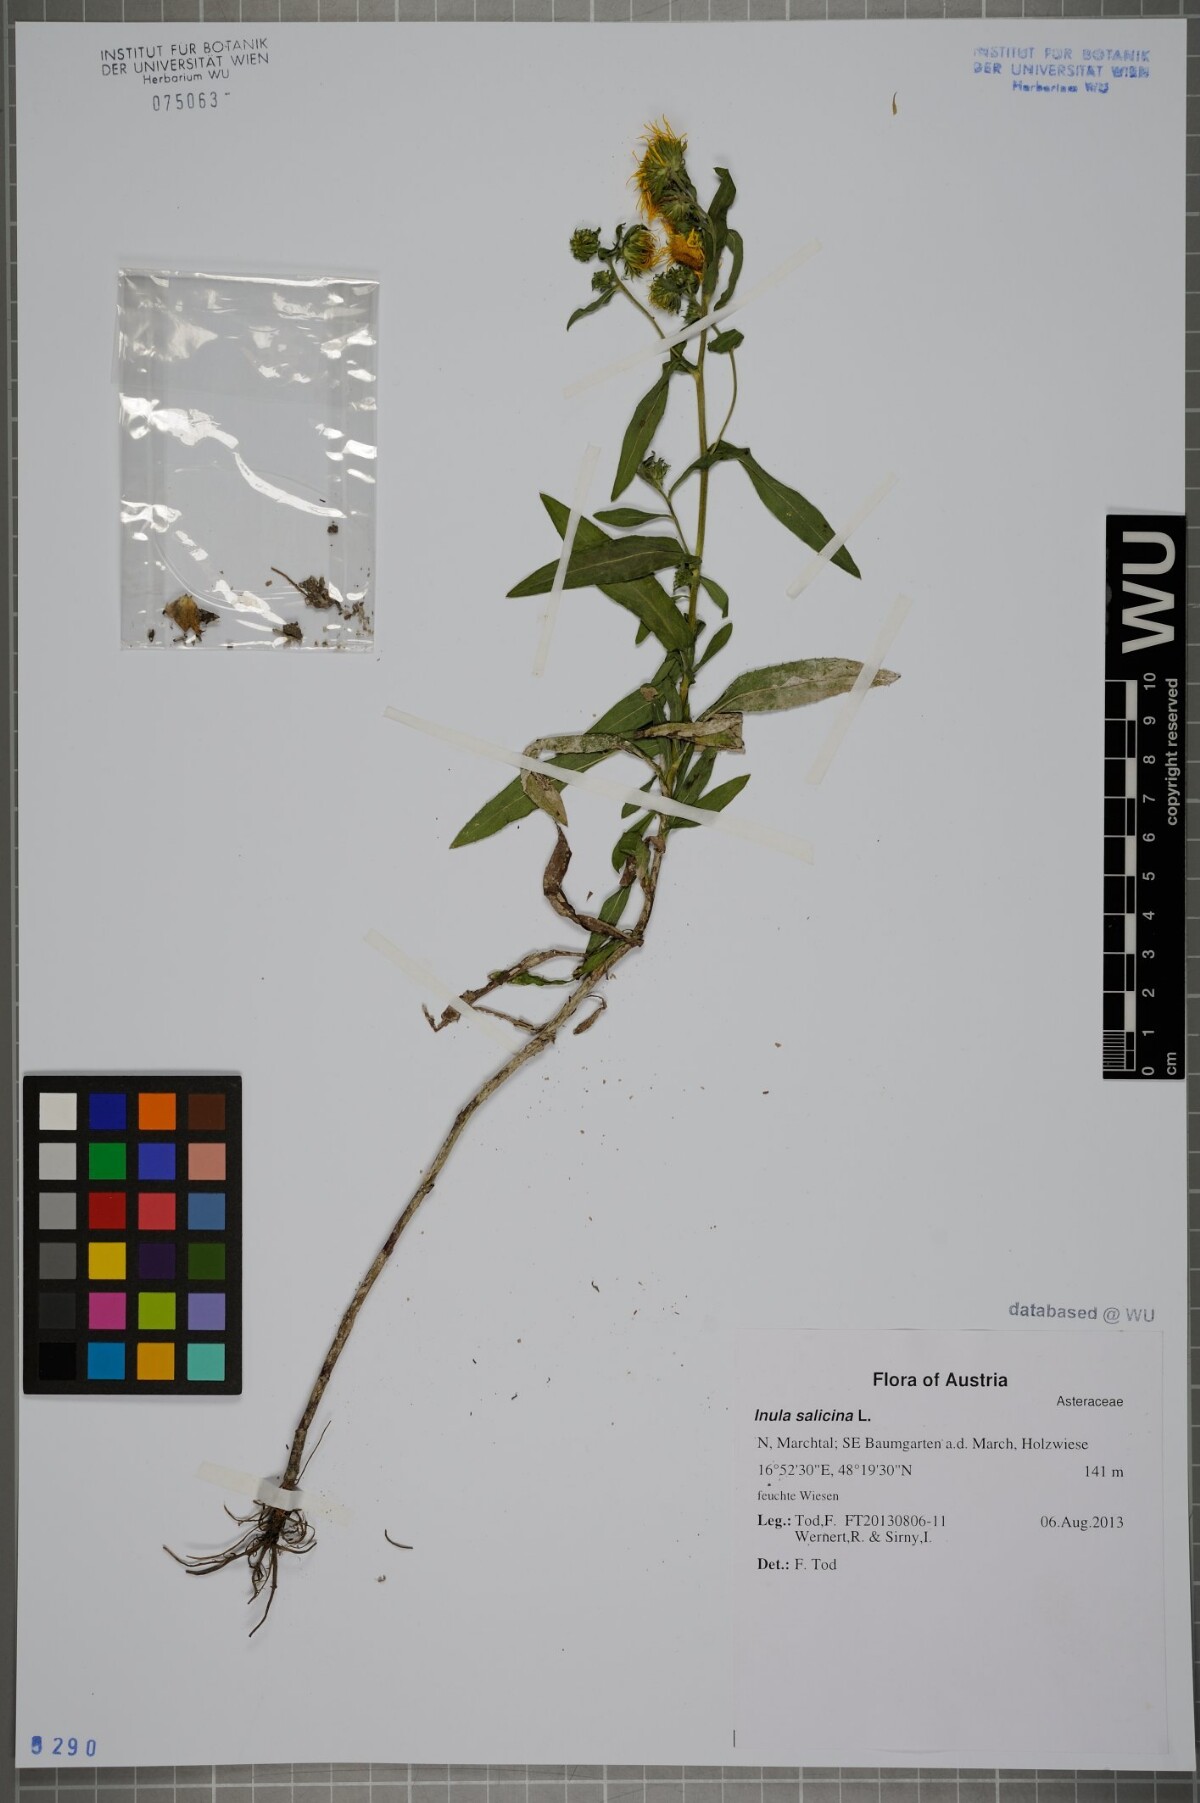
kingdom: Plantae
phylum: Tracheophyta
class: Magnoliopsida
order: Asterales
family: Asteraceae
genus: Pentanema
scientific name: Pentanema britannicum
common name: British elecampane
